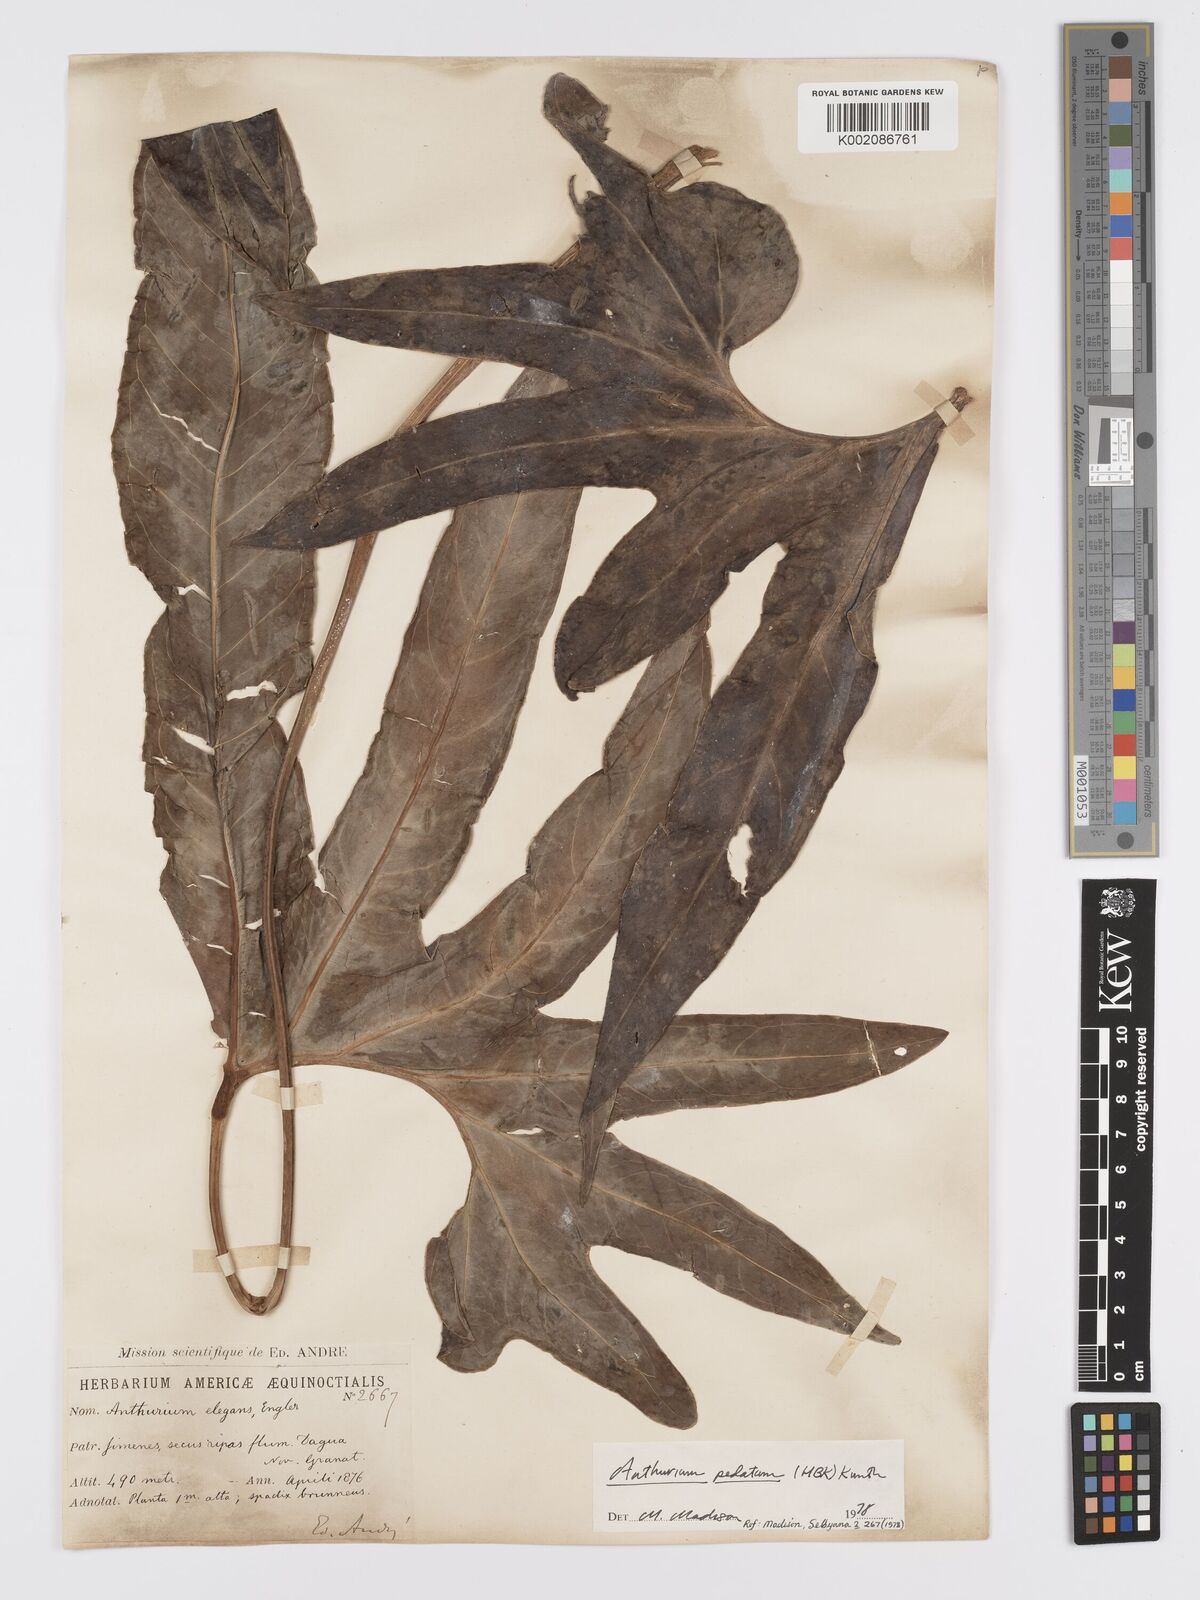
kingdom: Plantae
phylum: Tracheophyta
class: Liliopsida
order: Alismatales
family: Araceae
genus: Anthurium
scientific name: Anthurium pedatum
